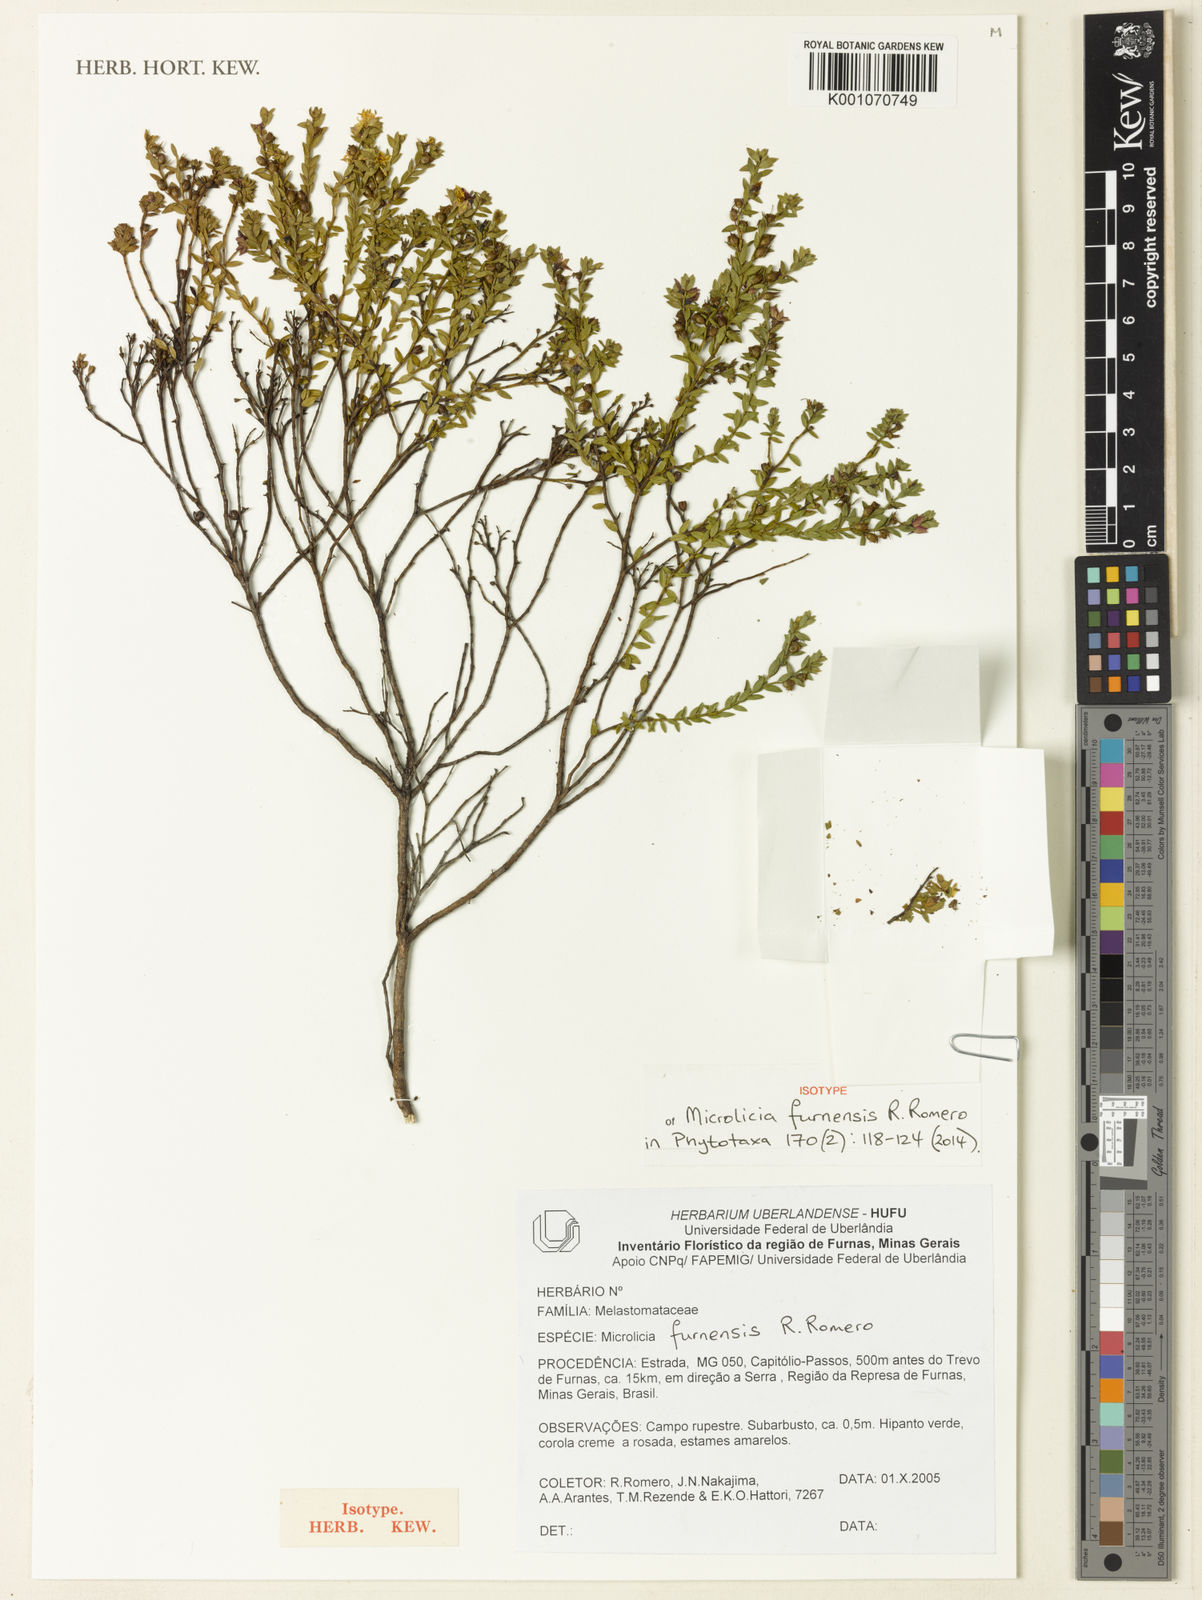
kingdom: Plantae
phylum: Tracheophyta
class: Magnoliopsida
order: Myrtales
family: Melastomataceae
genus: Microlicia
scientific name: Microlicia furnensis
